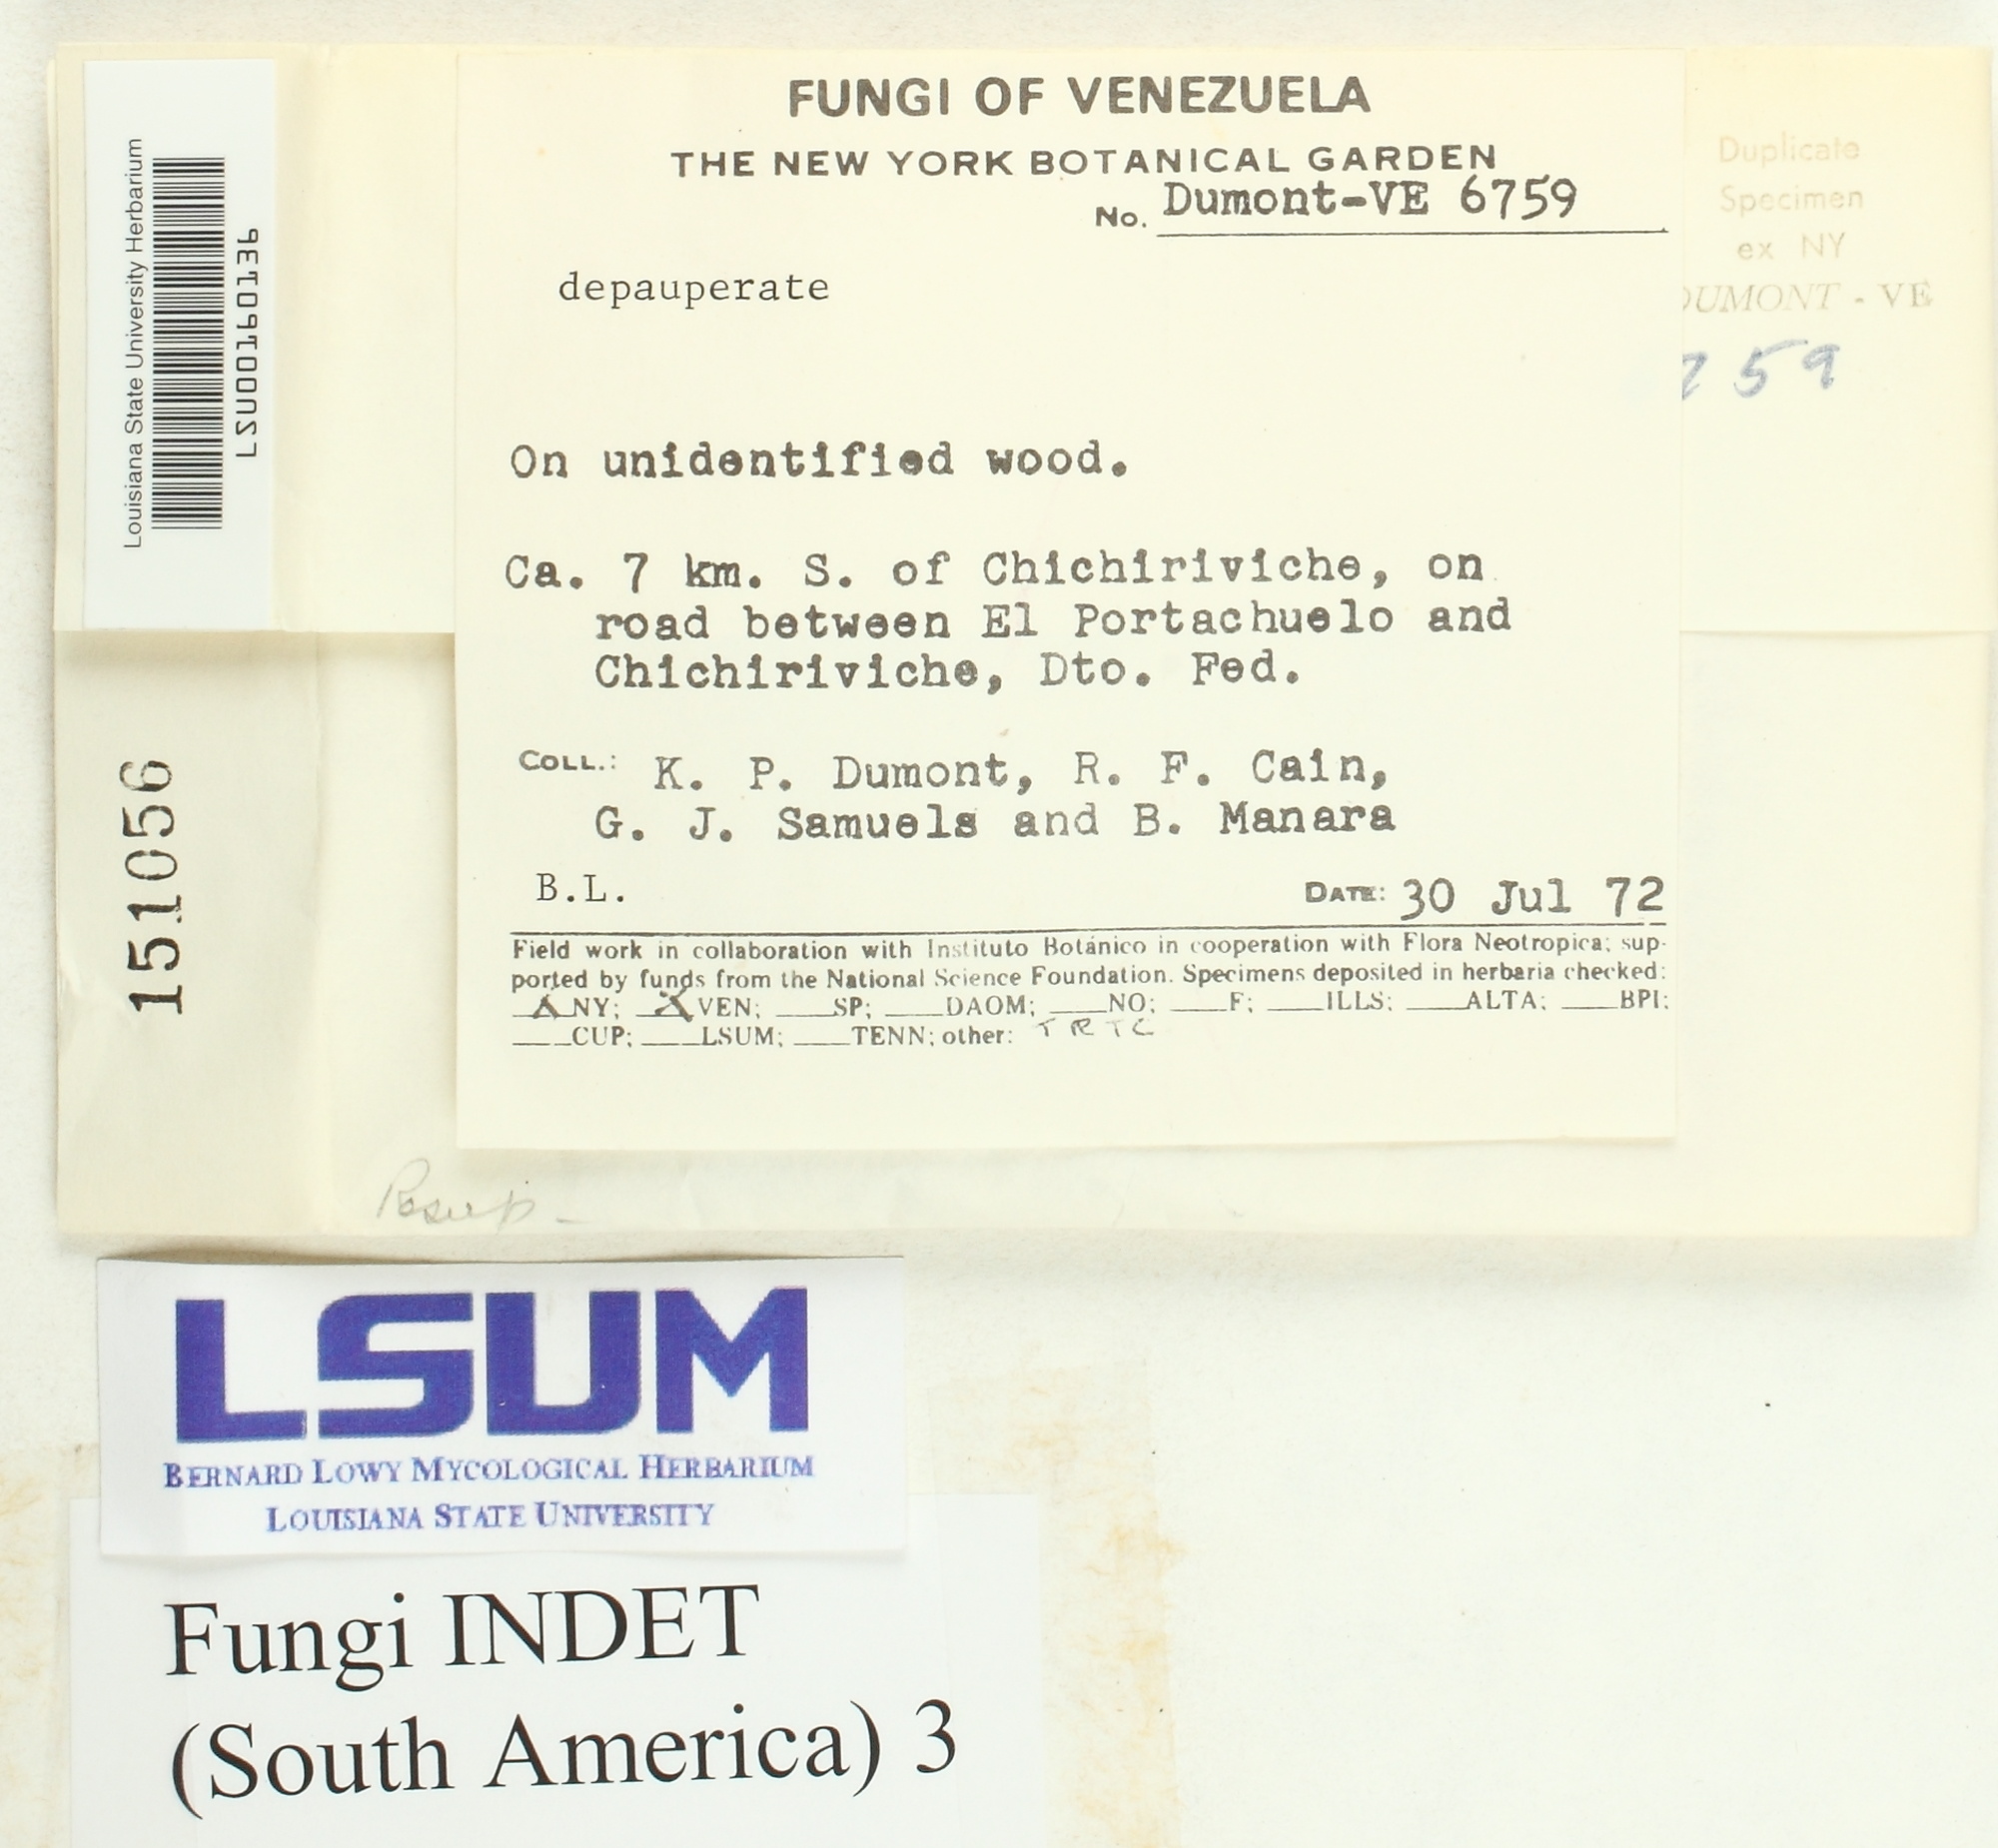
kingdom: Fungi
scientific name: Fungi
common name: Fungi
